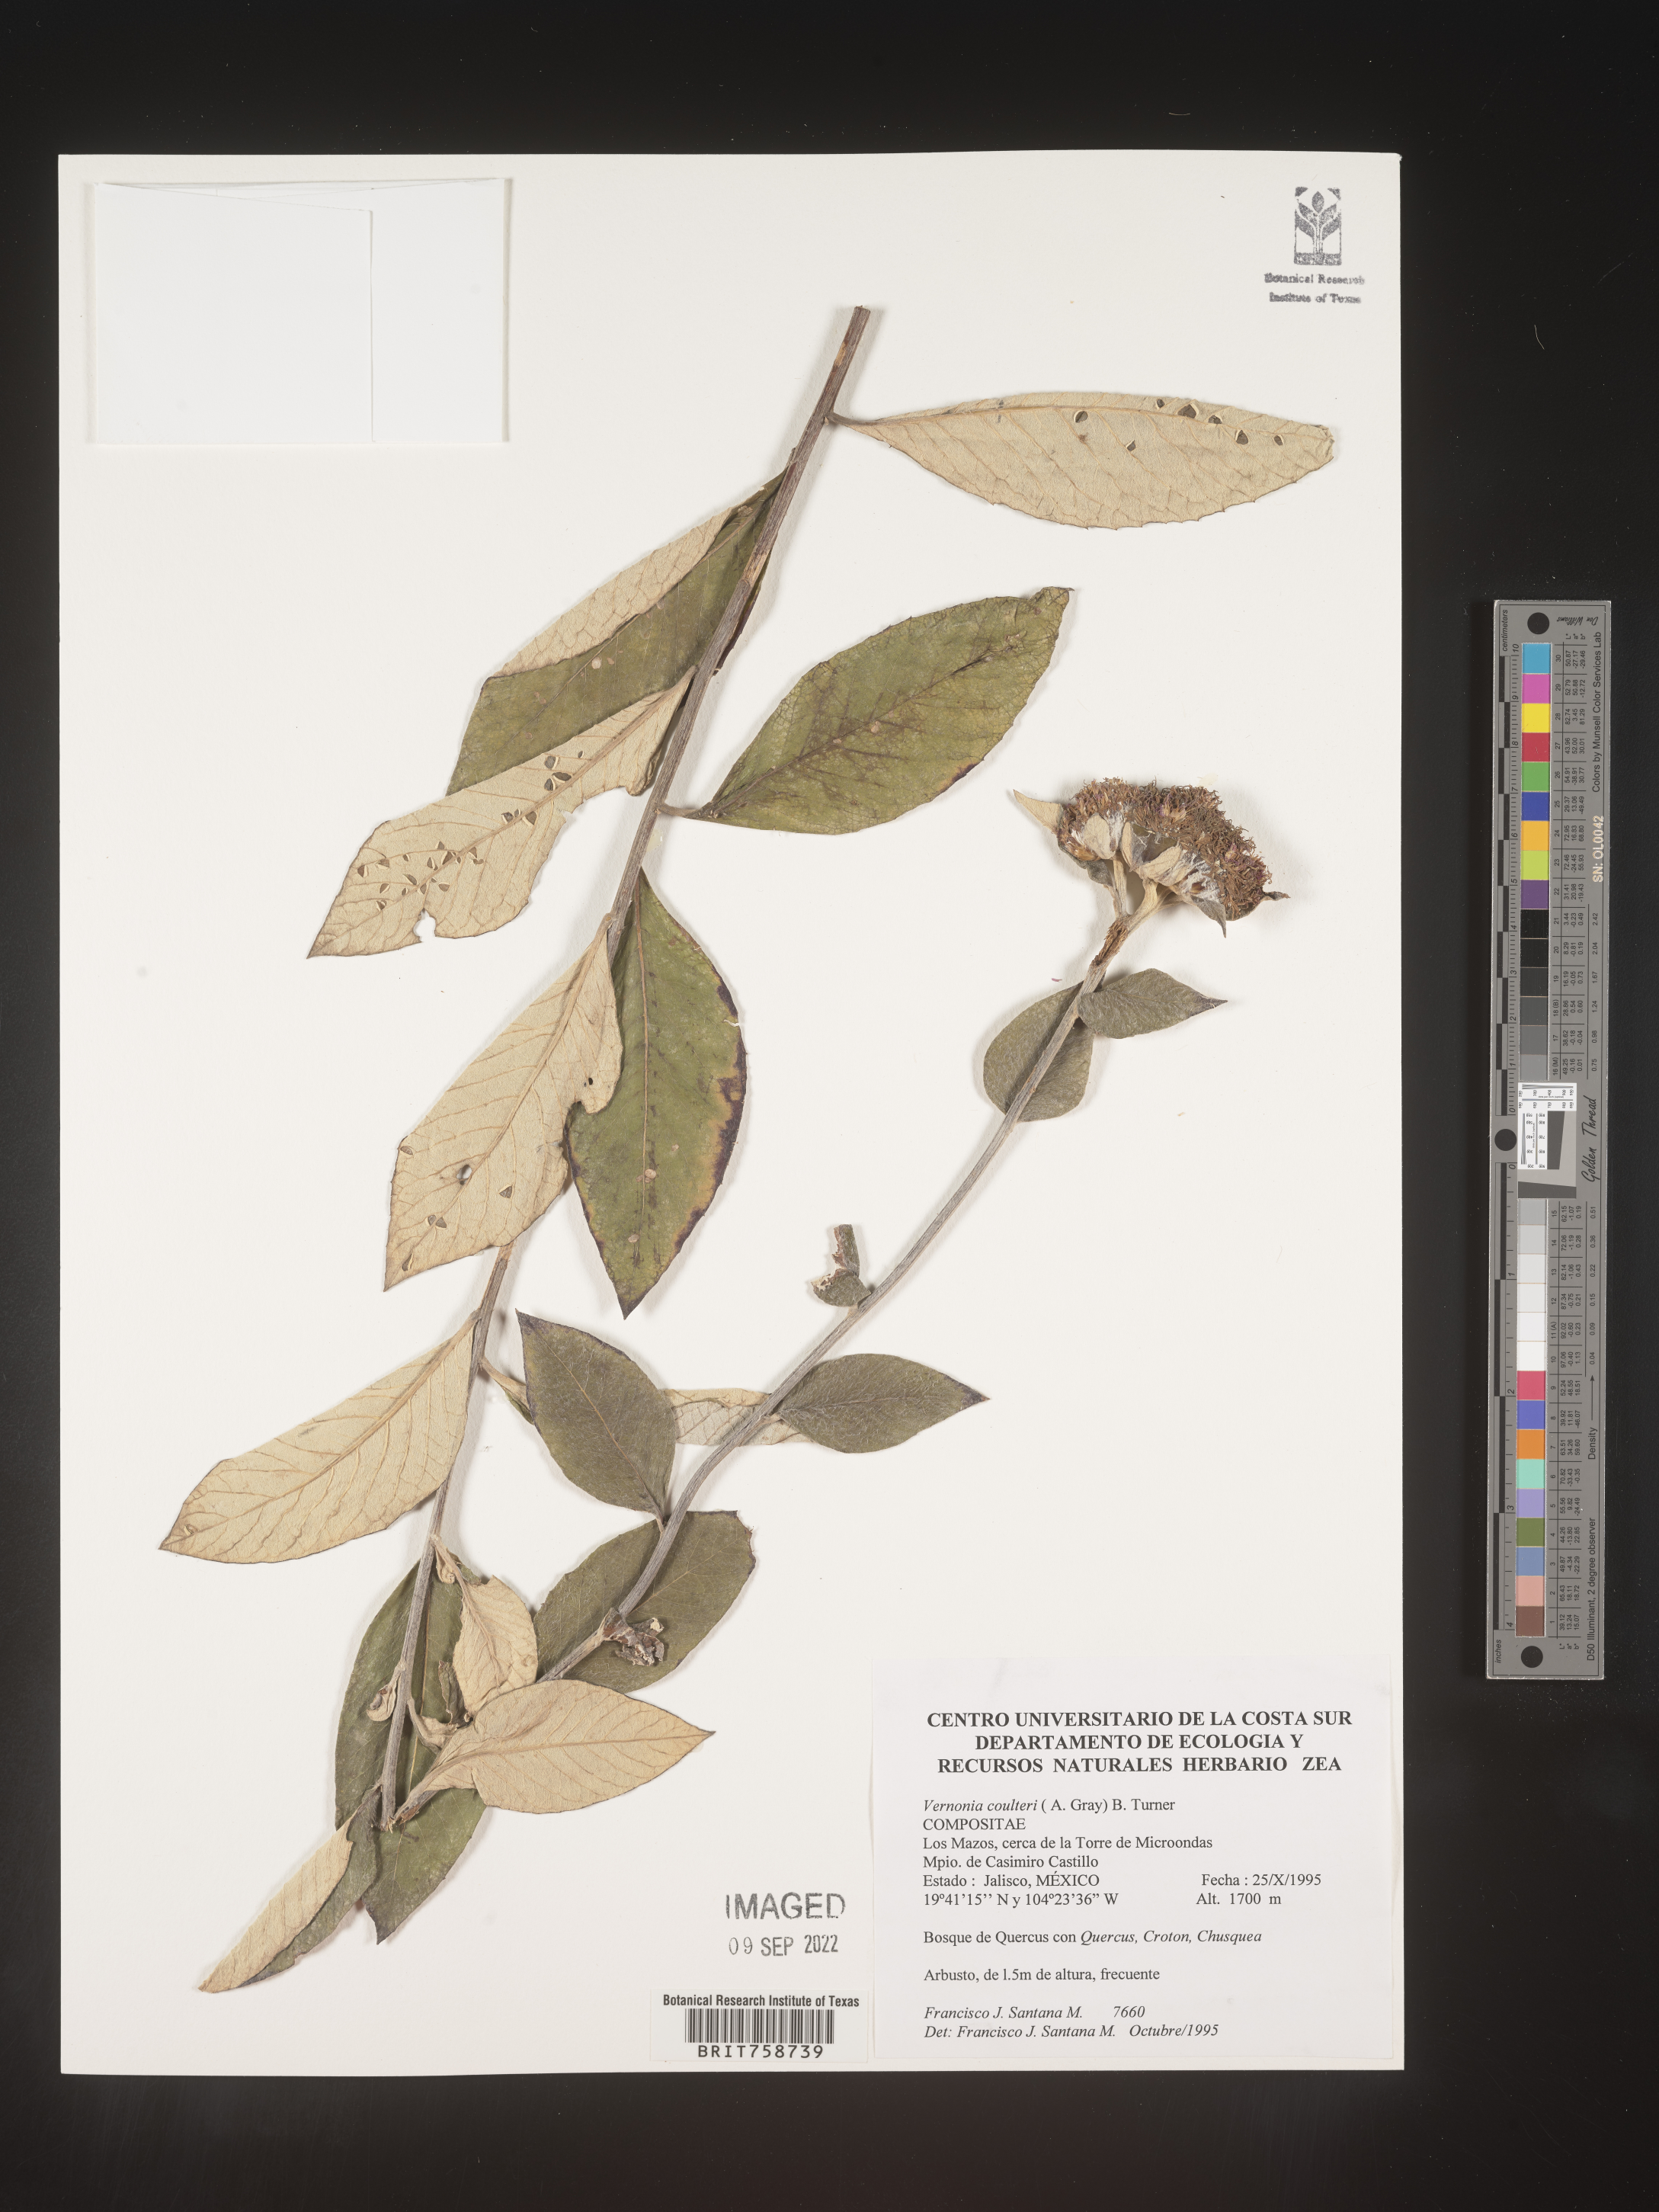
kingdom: Plantae
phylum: Tracheophyta
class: Magnoliopsida
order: Asterales
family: Asteraceae
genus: Vernonia
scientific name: Vernonia
